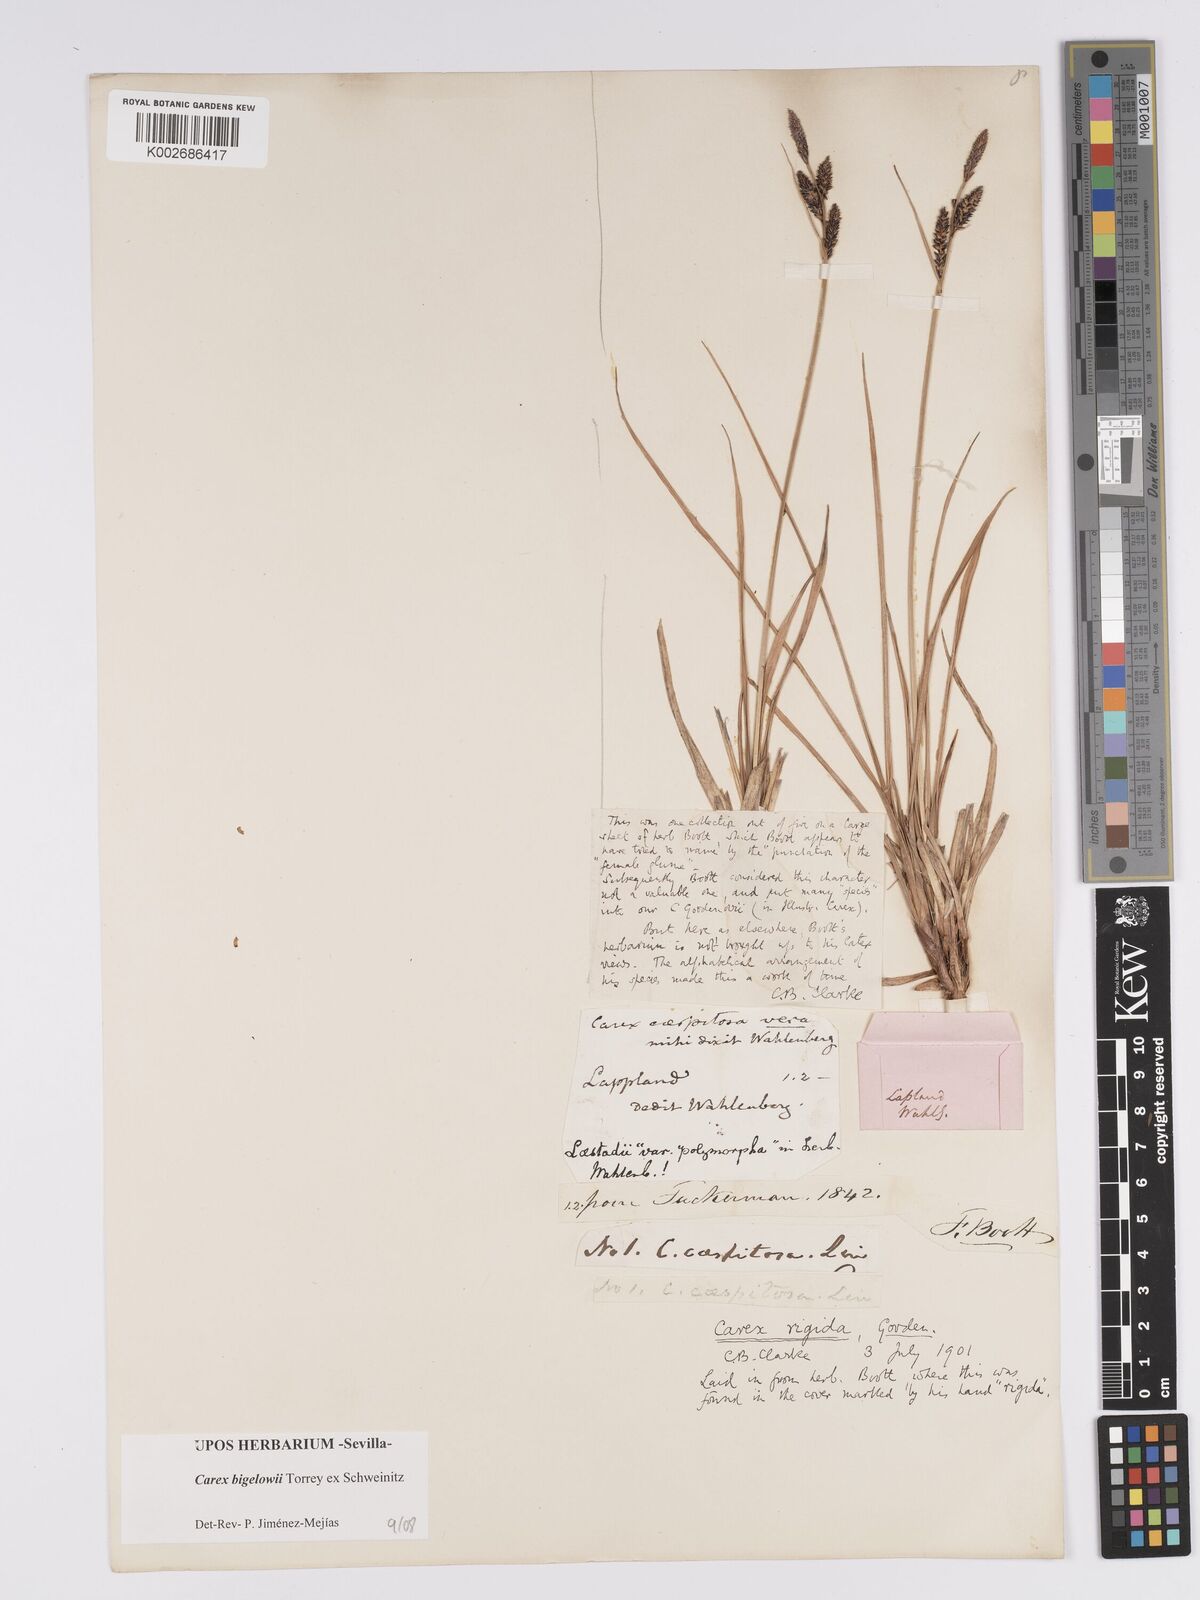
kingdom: Plantae
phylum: Tracheophyta
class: Liliopsida
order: Poales
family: Cyperaceae
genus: Carex
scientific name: Carex bigelowii
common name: Stiff sedge
